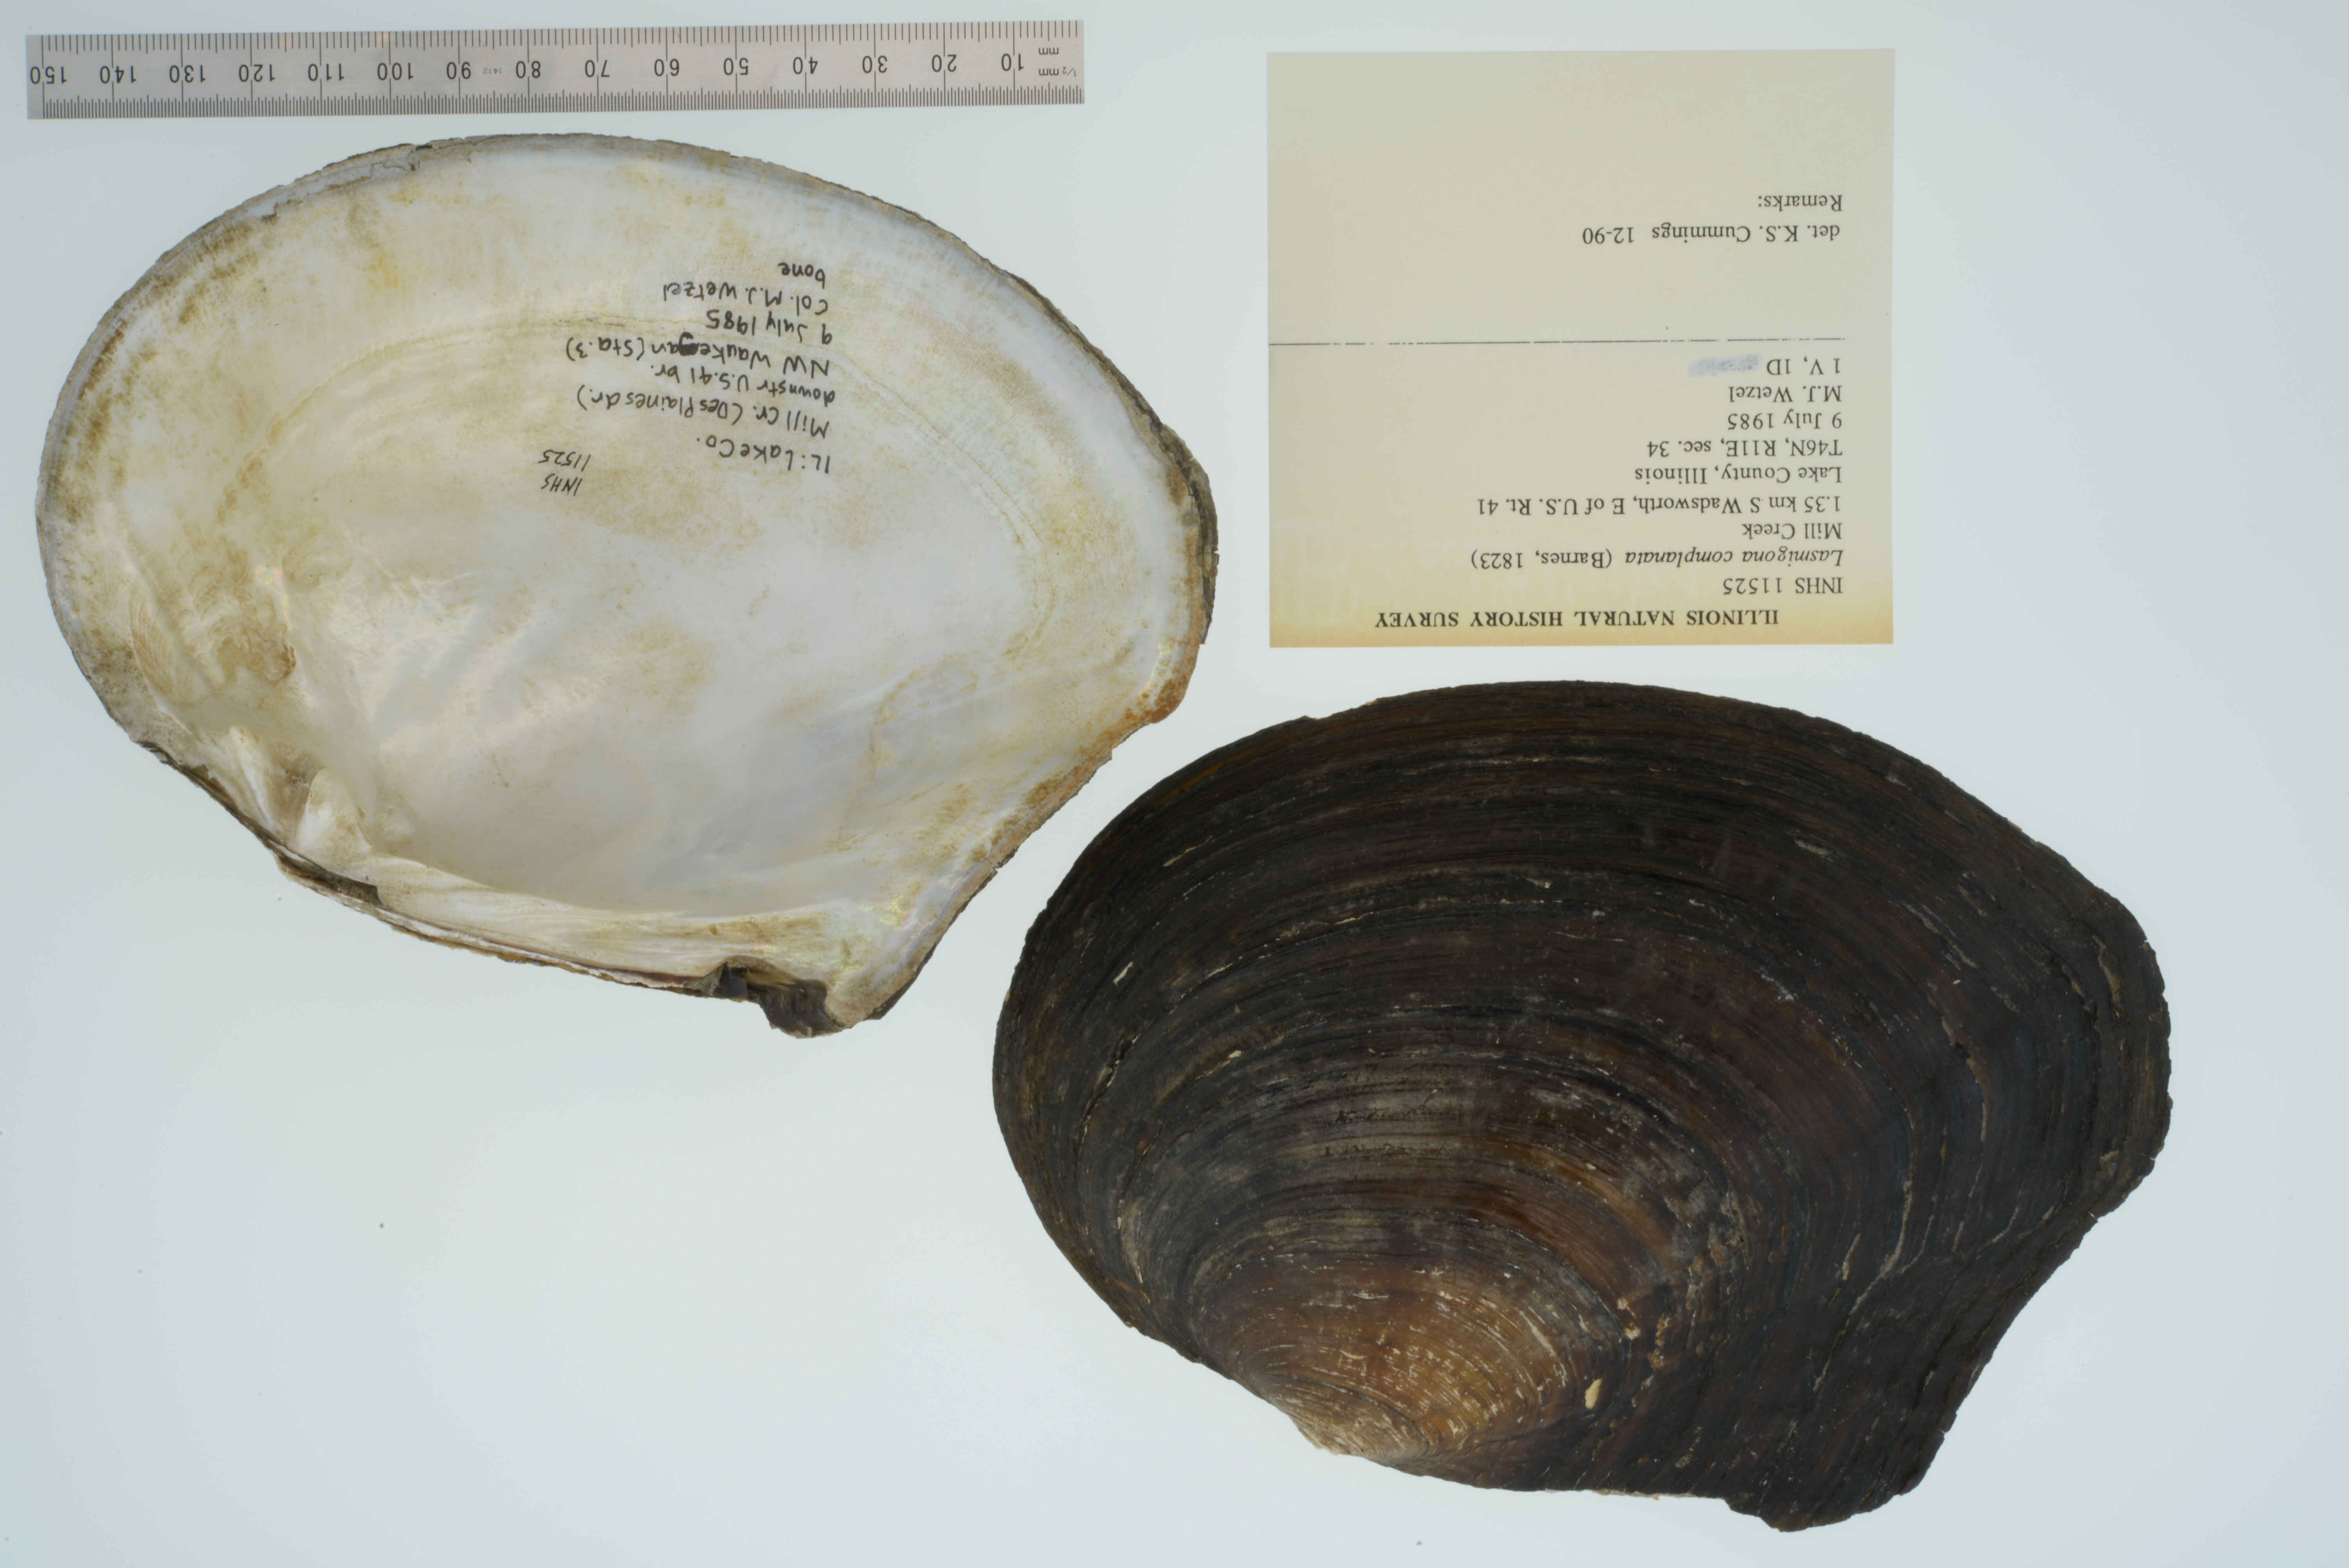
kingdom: Animalia
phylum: Mollusca
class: Bivalvia
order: Unionida
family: Unionidae
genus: Lasmigona
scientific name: Lasmigona complanata
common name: White heelsplitter
